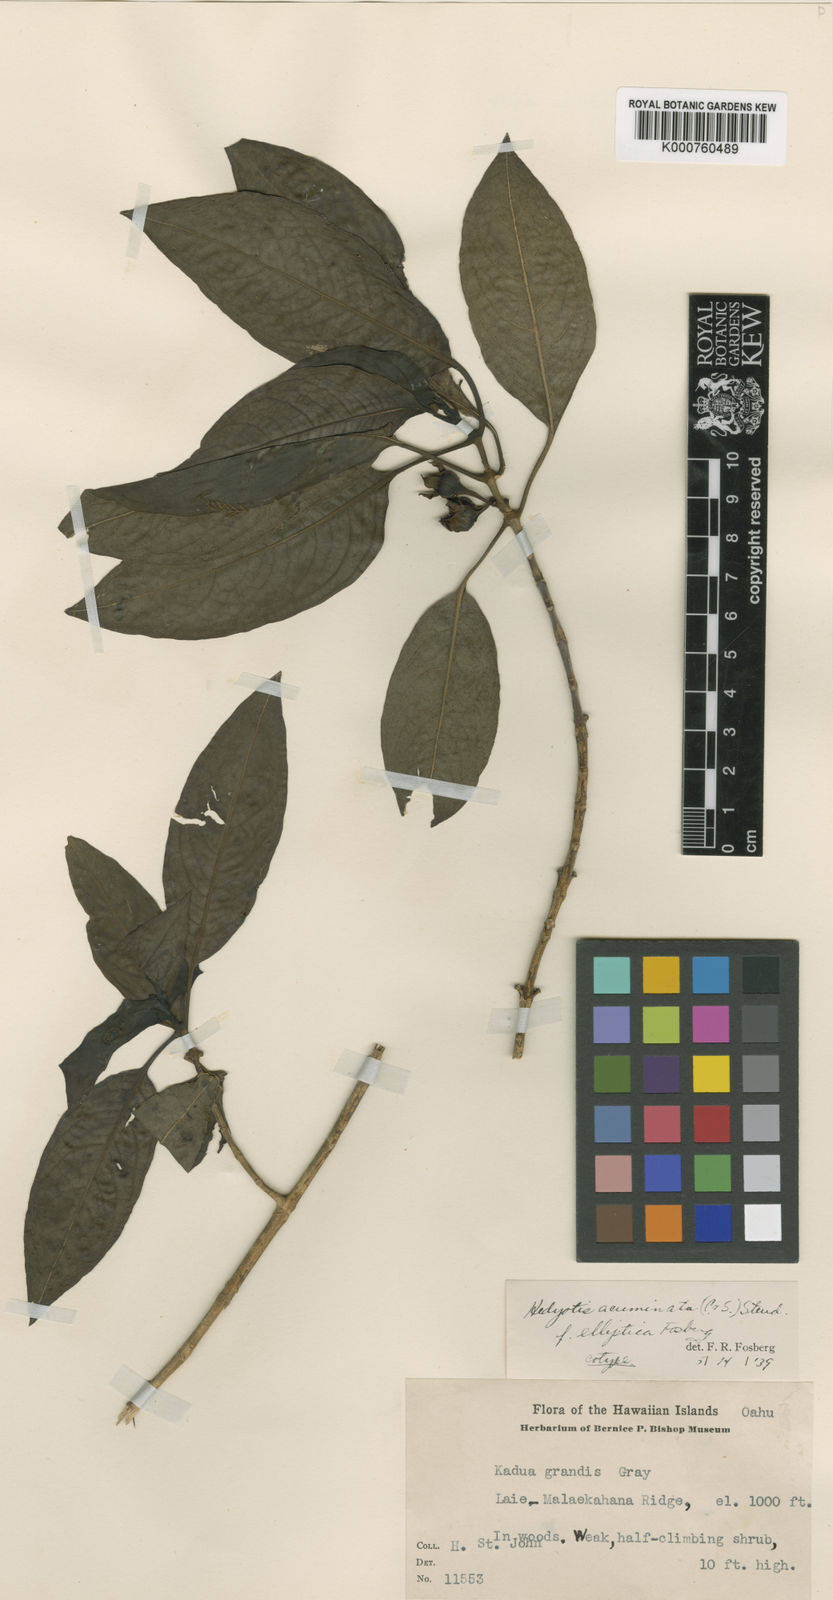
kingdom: Plantae
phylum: Tracheophyta
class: Magnoliopsida
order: Gentianales
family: Rubiaceae
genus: Kadua
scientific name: Kadua acuminata
